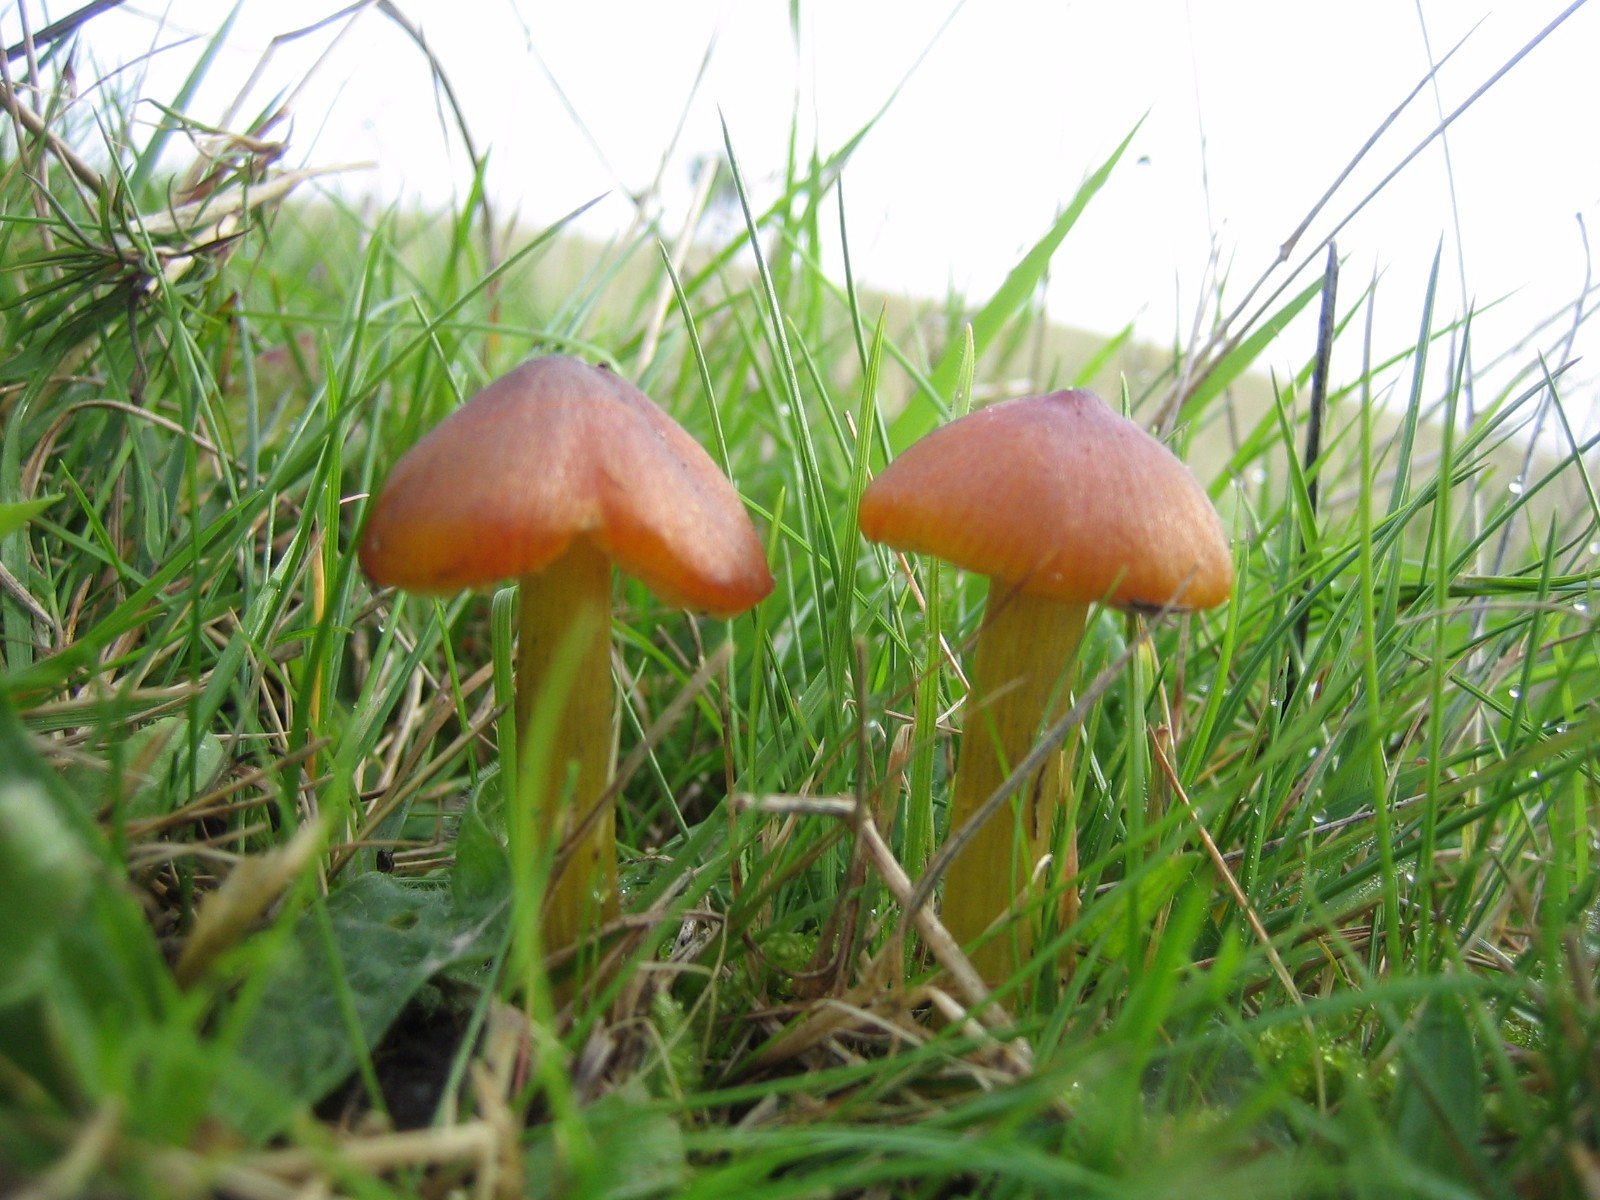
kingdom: Fungi
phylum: Basidiomycota
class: Agaricomycetes
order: Agaricales
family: Hygrophoraceae
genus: Hygrocybe
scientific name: Hygrocybe conica
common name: kegle-vokshat
